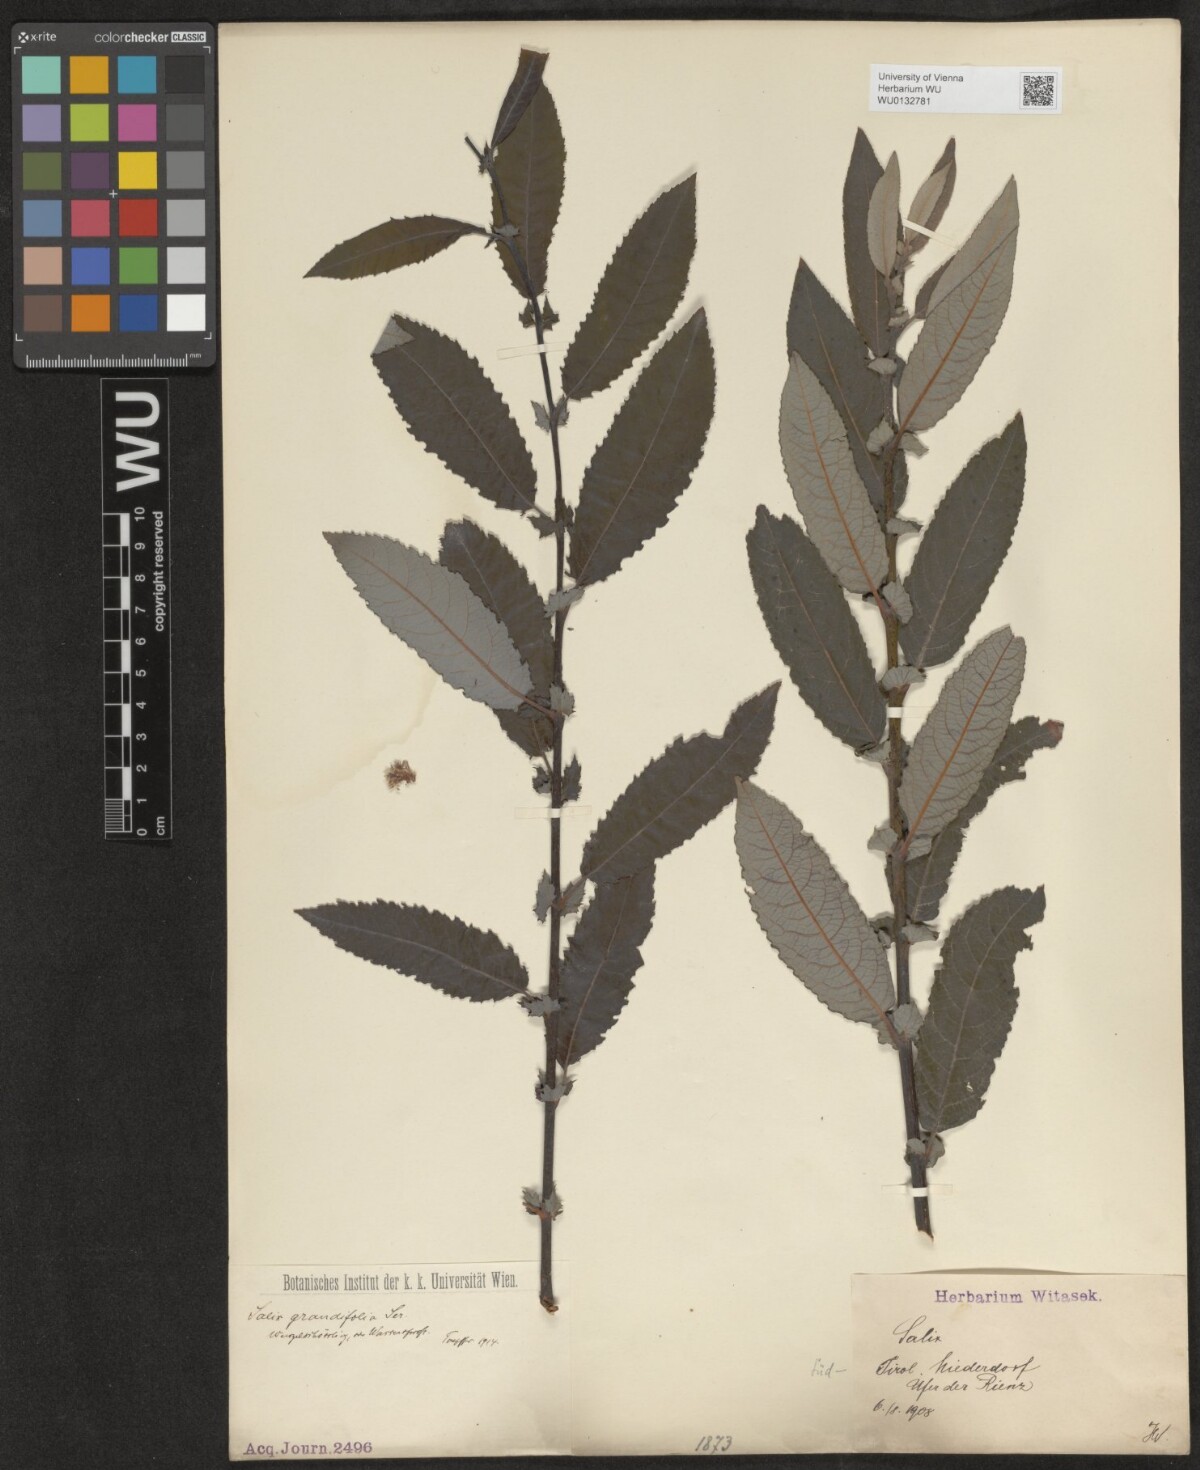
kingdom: Plantae
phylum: Tracheophyta
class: Magnoliopsida
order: Malpighiales
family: Salicaceae
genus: Salix
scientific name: Salix appendiculata
